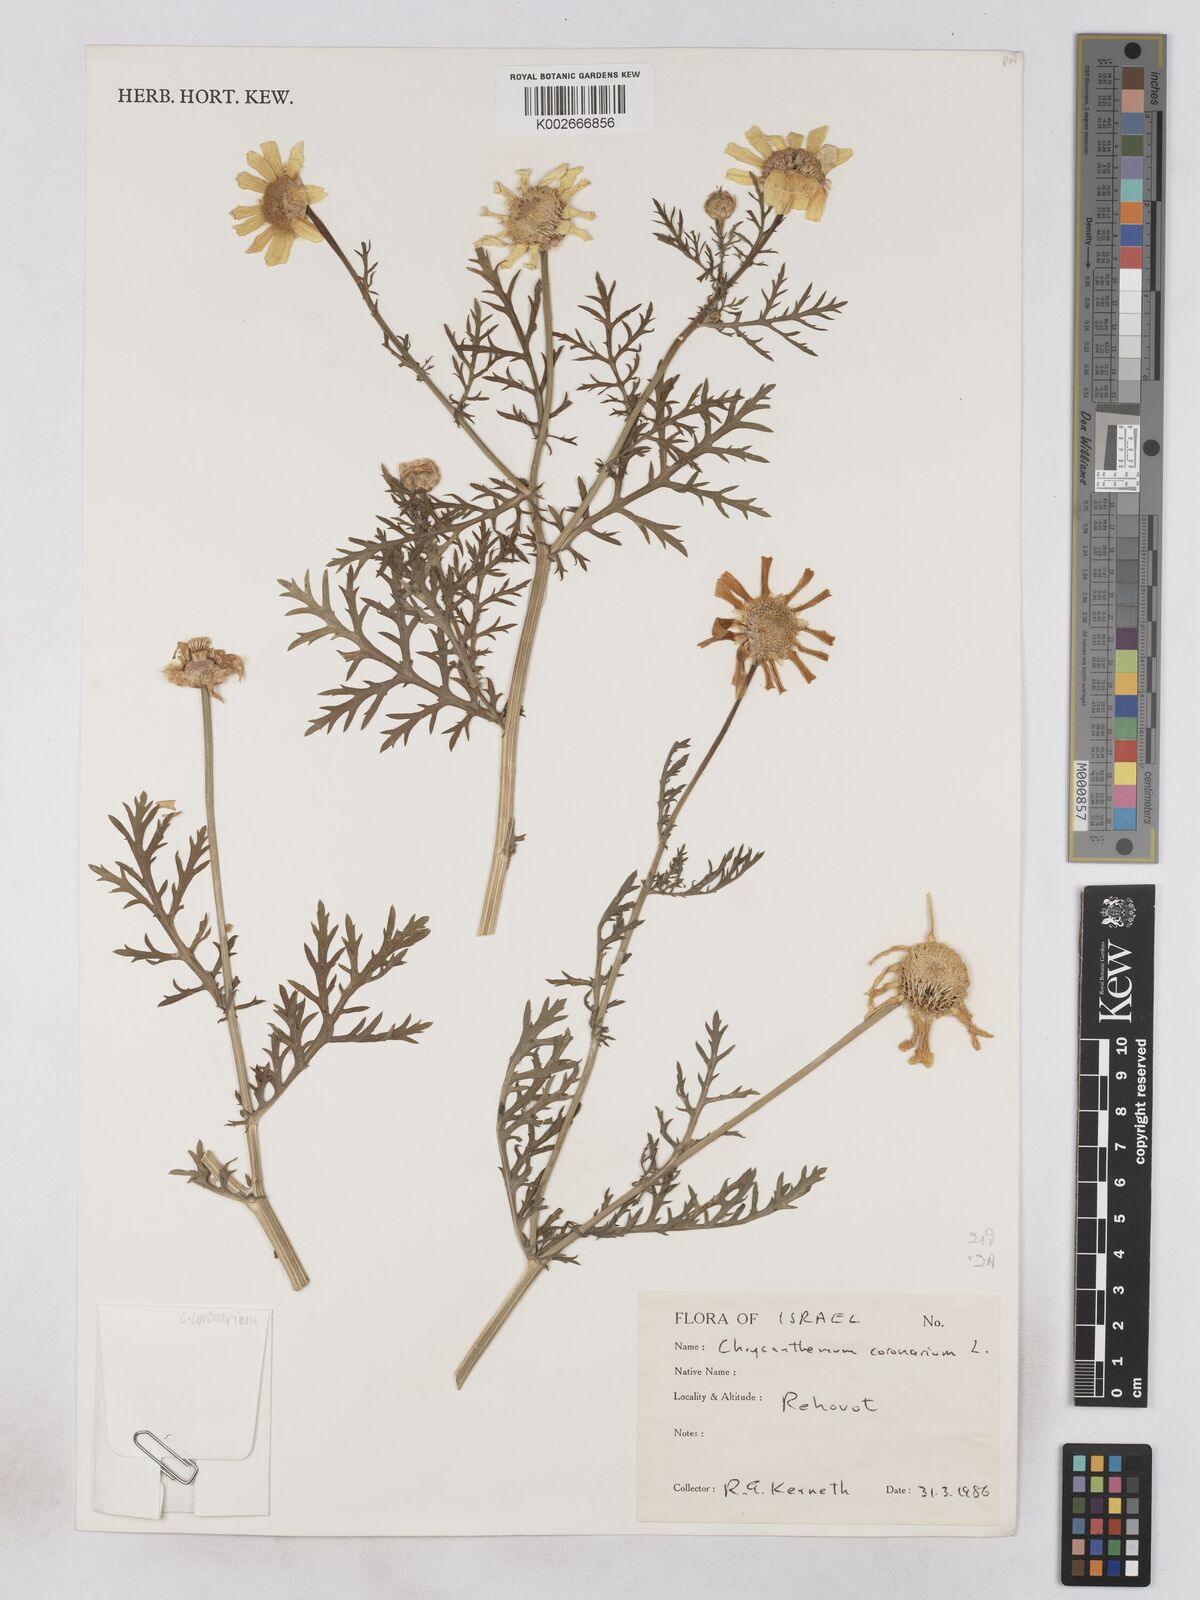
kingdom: Plantae
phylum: Tracheophyta
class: Magnoliopsida
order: Asterales
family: Asteraceae
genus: Glebionis
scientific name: Glebionis coronaria
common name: Crowndaisy
